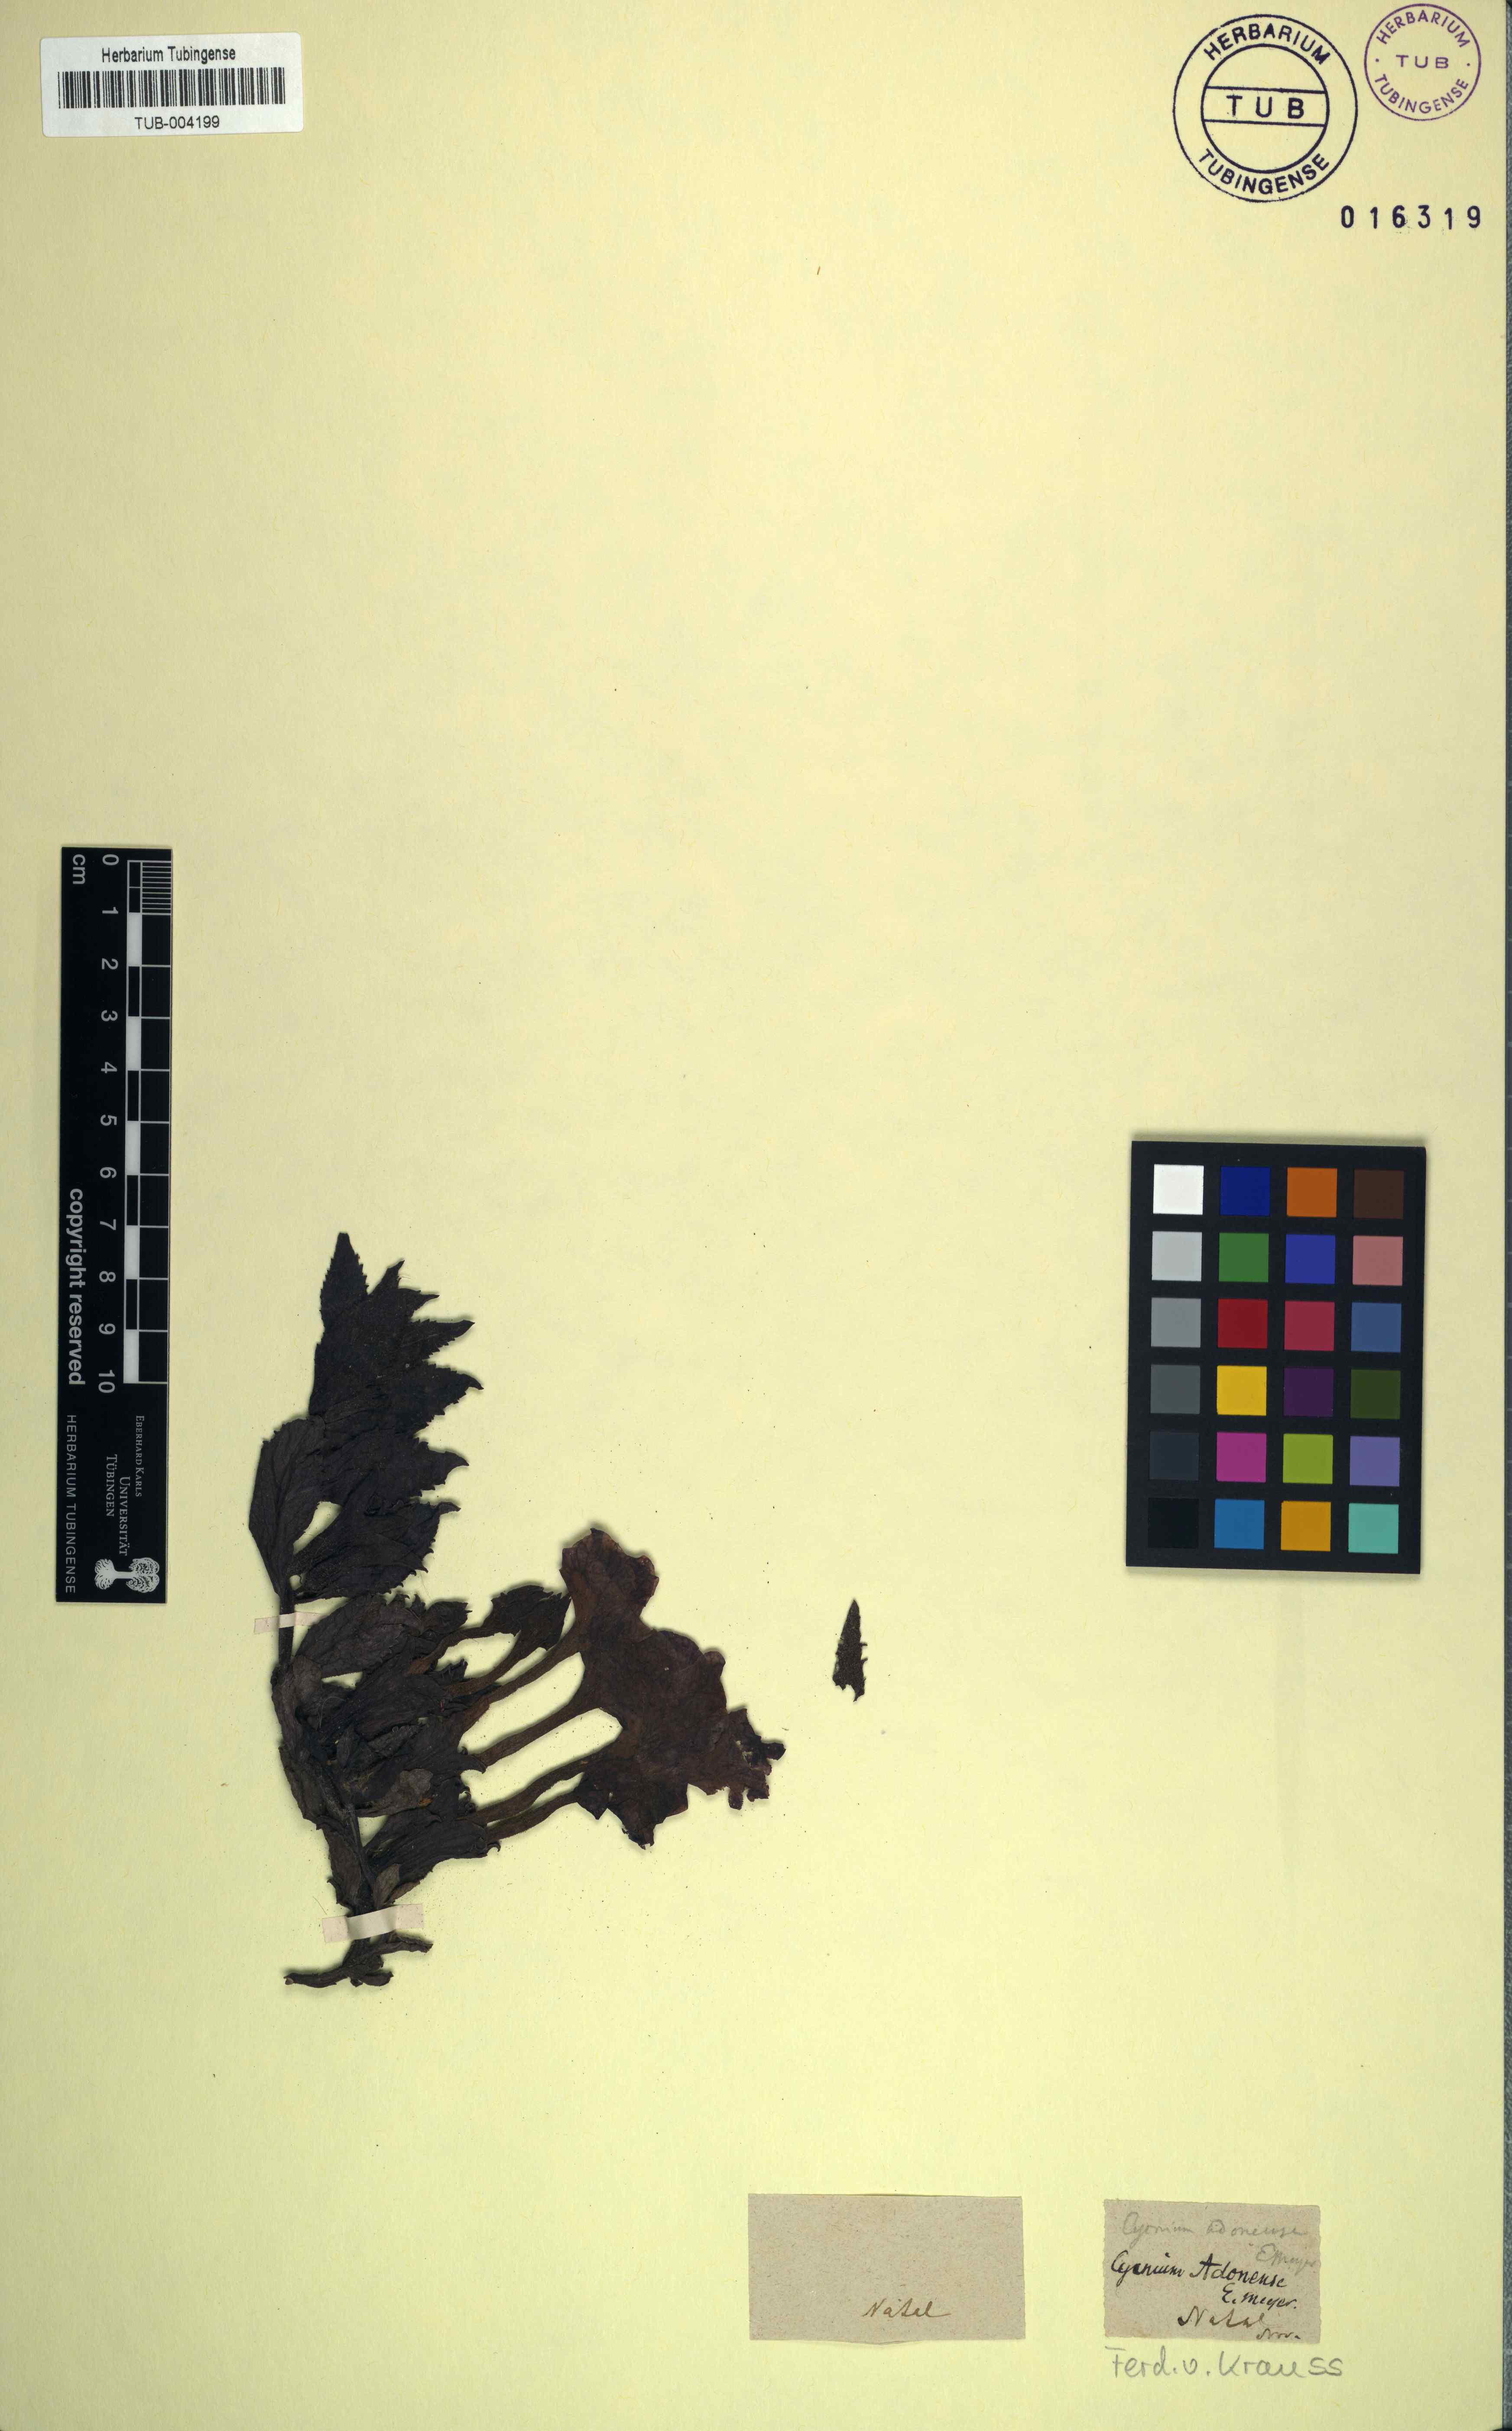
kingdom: Plantae
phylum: Tracheophyta
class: Magnoliopsida
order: Lamiales
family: Orobanchaceae
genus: Cycnium
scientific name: Cycnium adonense
